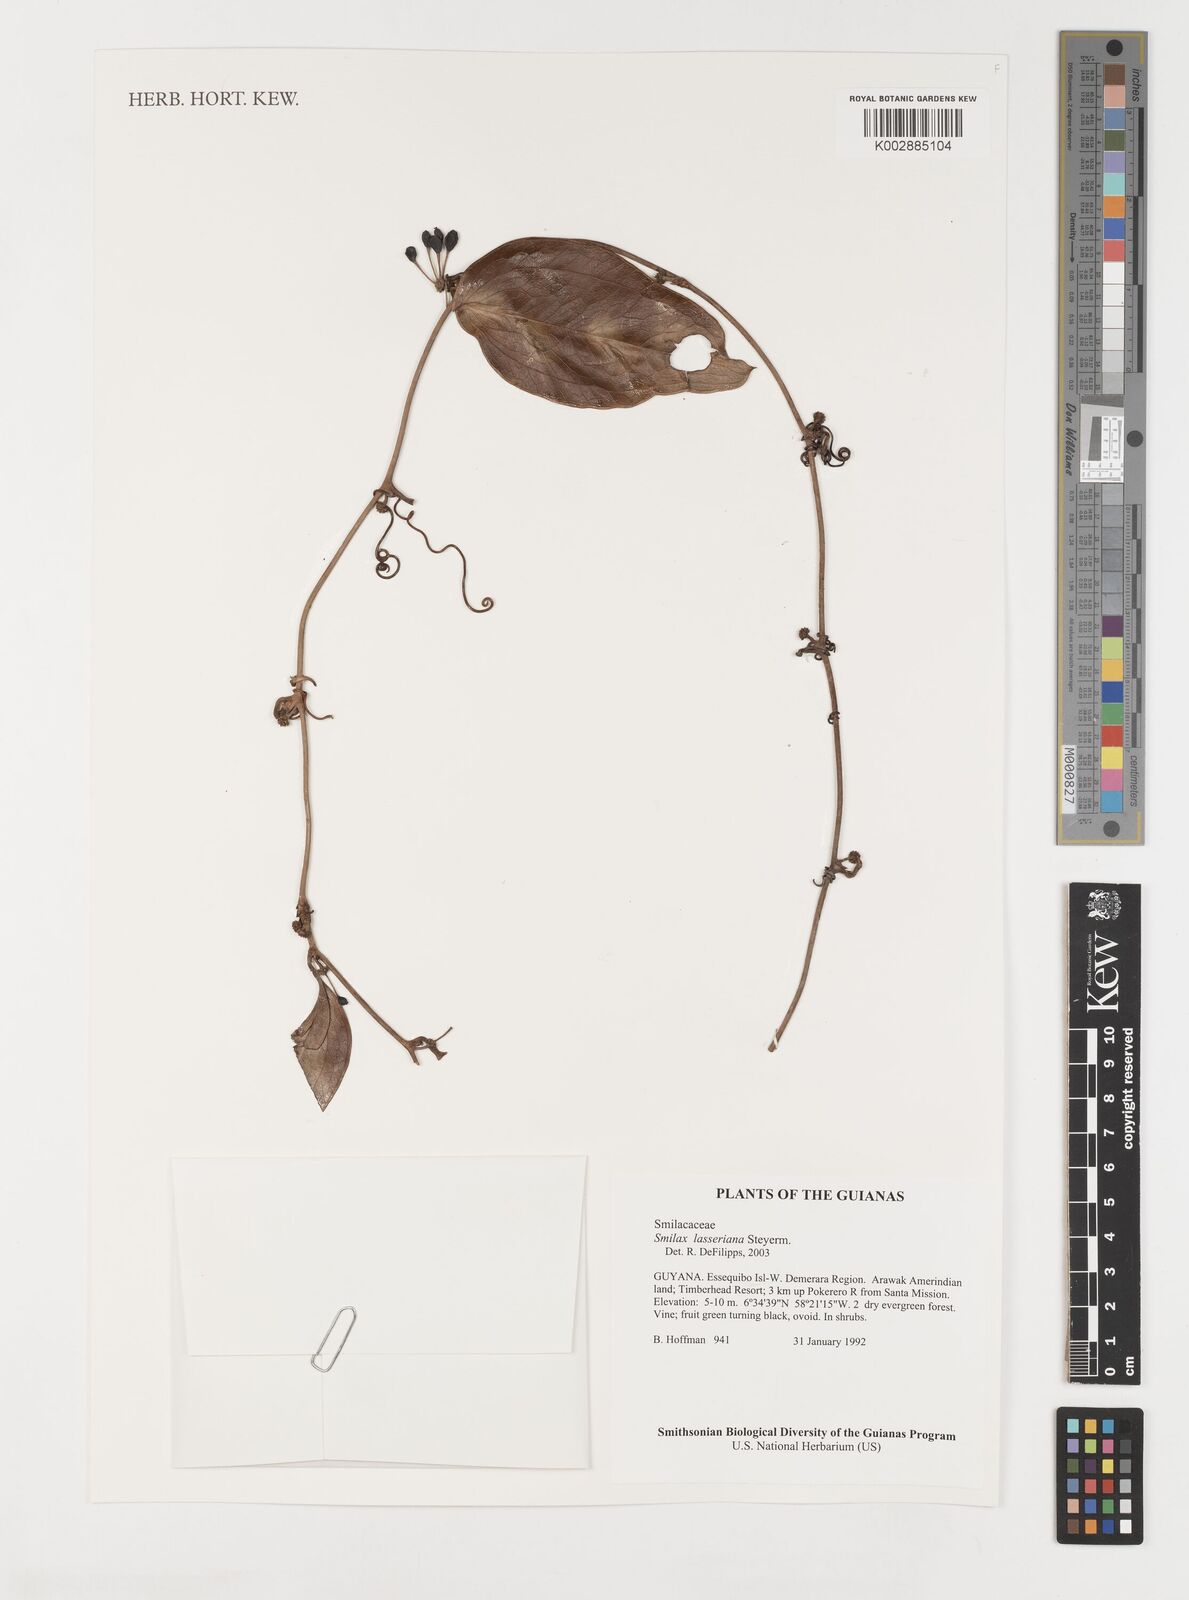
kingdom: Plantae
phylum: Tracheophyta
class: Liliopsida
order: Liliales
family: Smilacaceae
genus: Smilax
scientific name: Smilax domingensis
